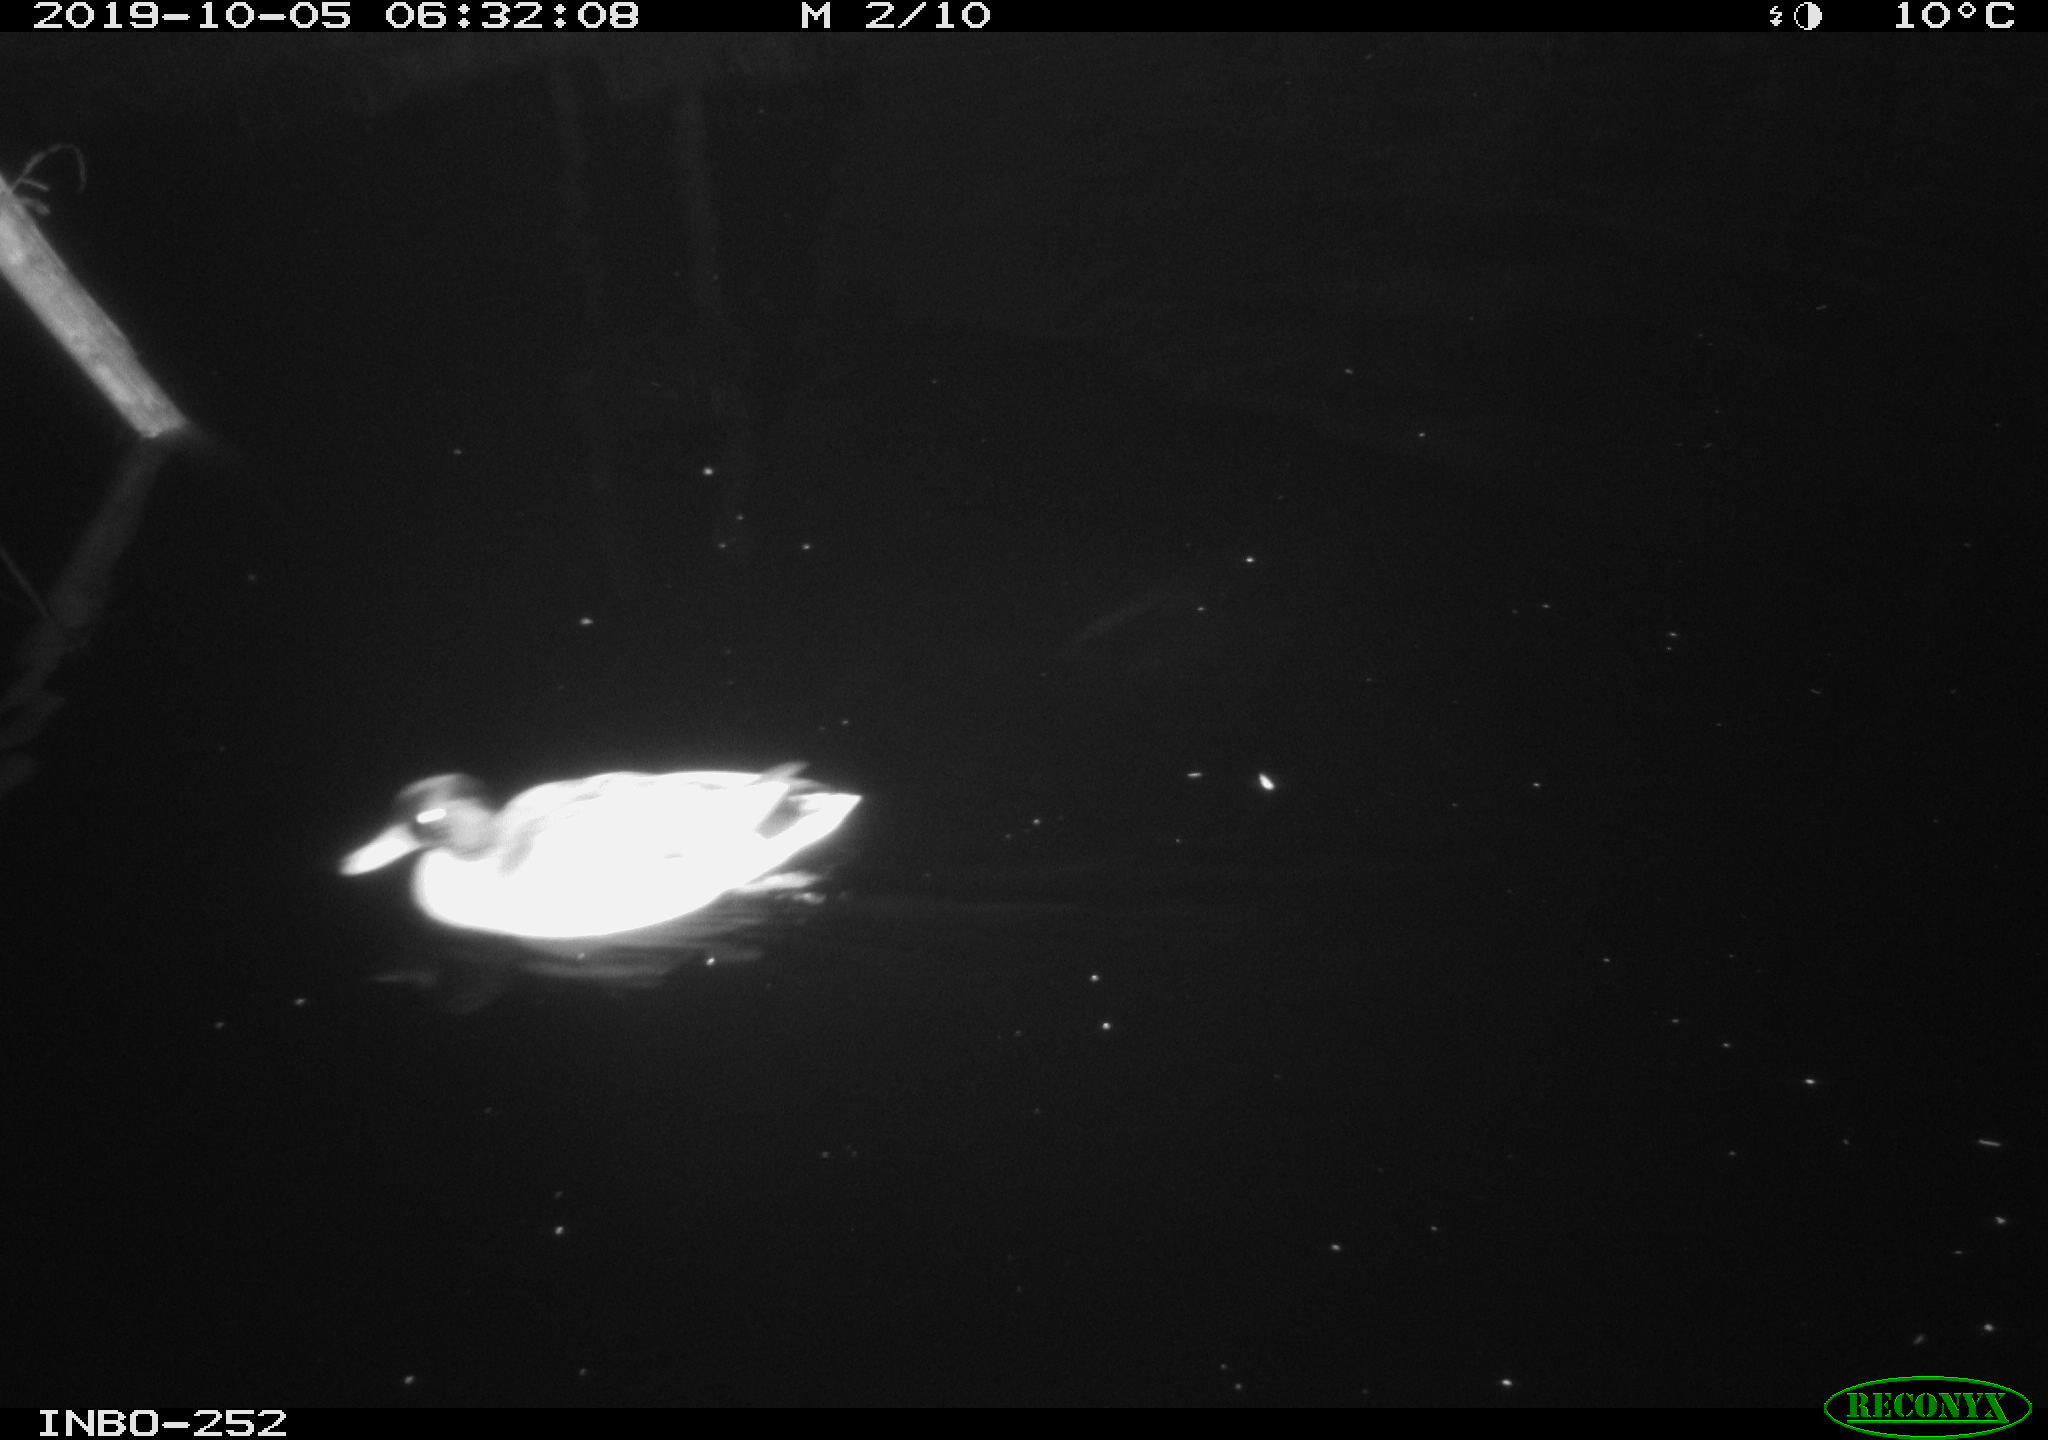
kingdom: Animalia
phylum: Chordata
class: Aves
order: Anseriformes
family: Anatidae
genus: Anas
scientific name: Anas platyrhynchos
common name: Mallard
